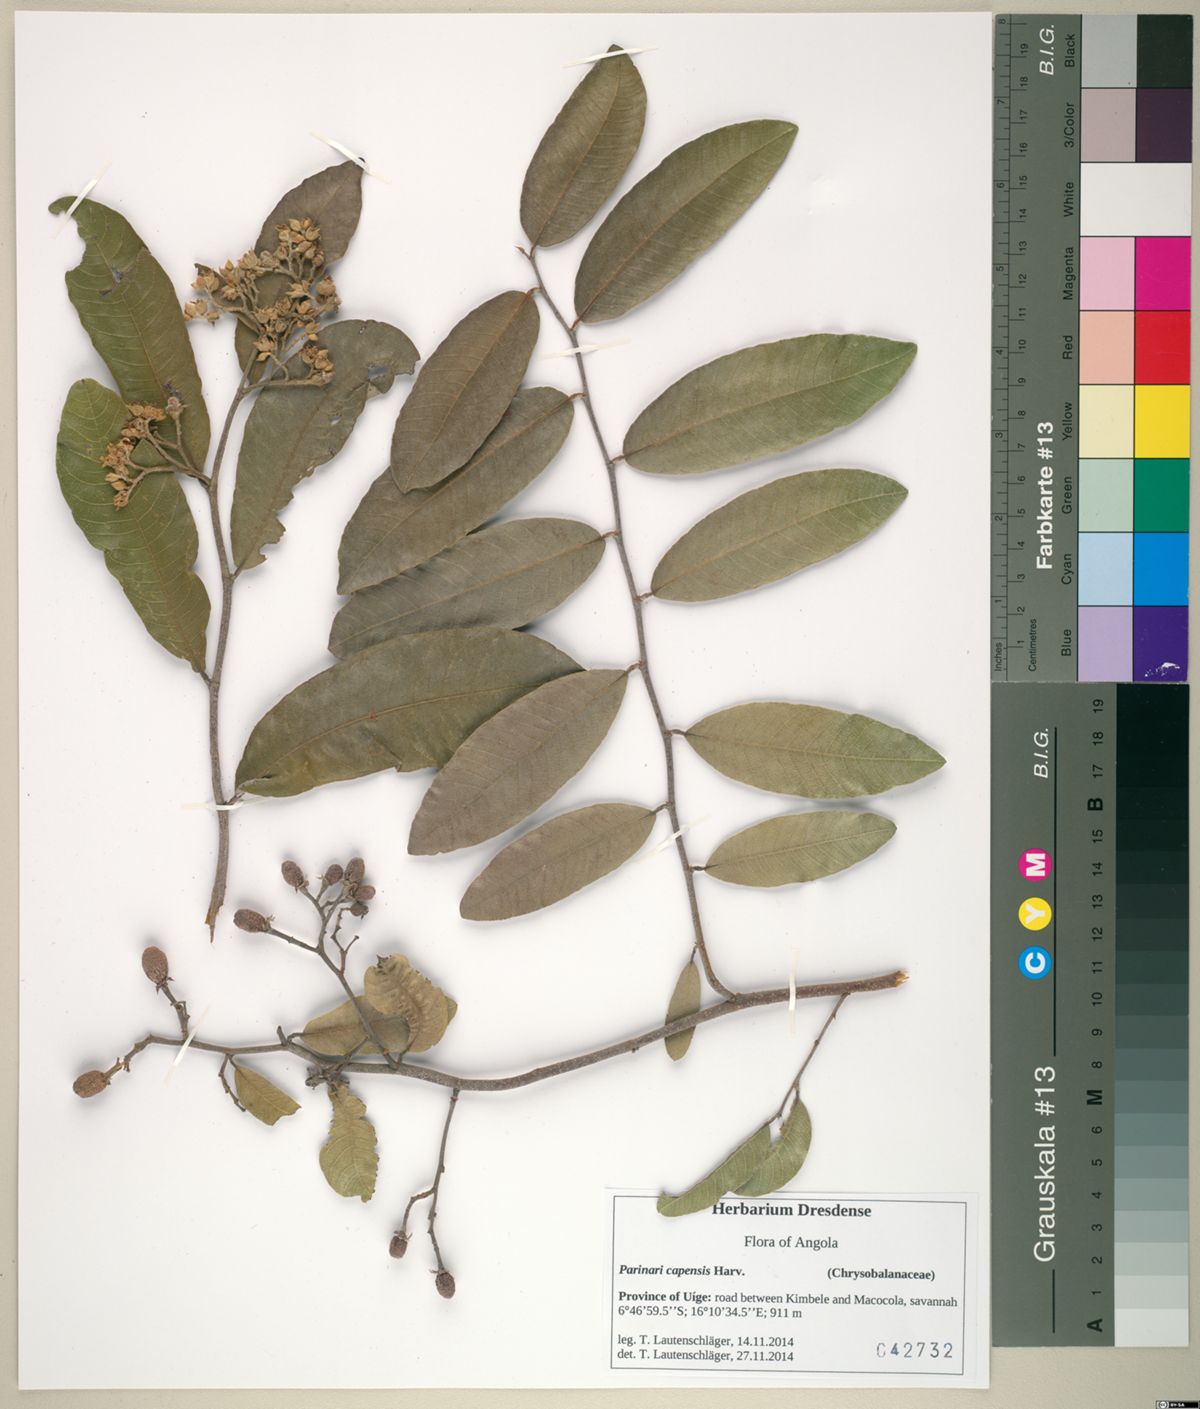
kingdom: Plantae
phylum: Tracheophyta
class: Magnoliopsida
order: Malpighiales
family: Chrysobalanaceae
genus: Parinari
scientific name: Parinari capensis
